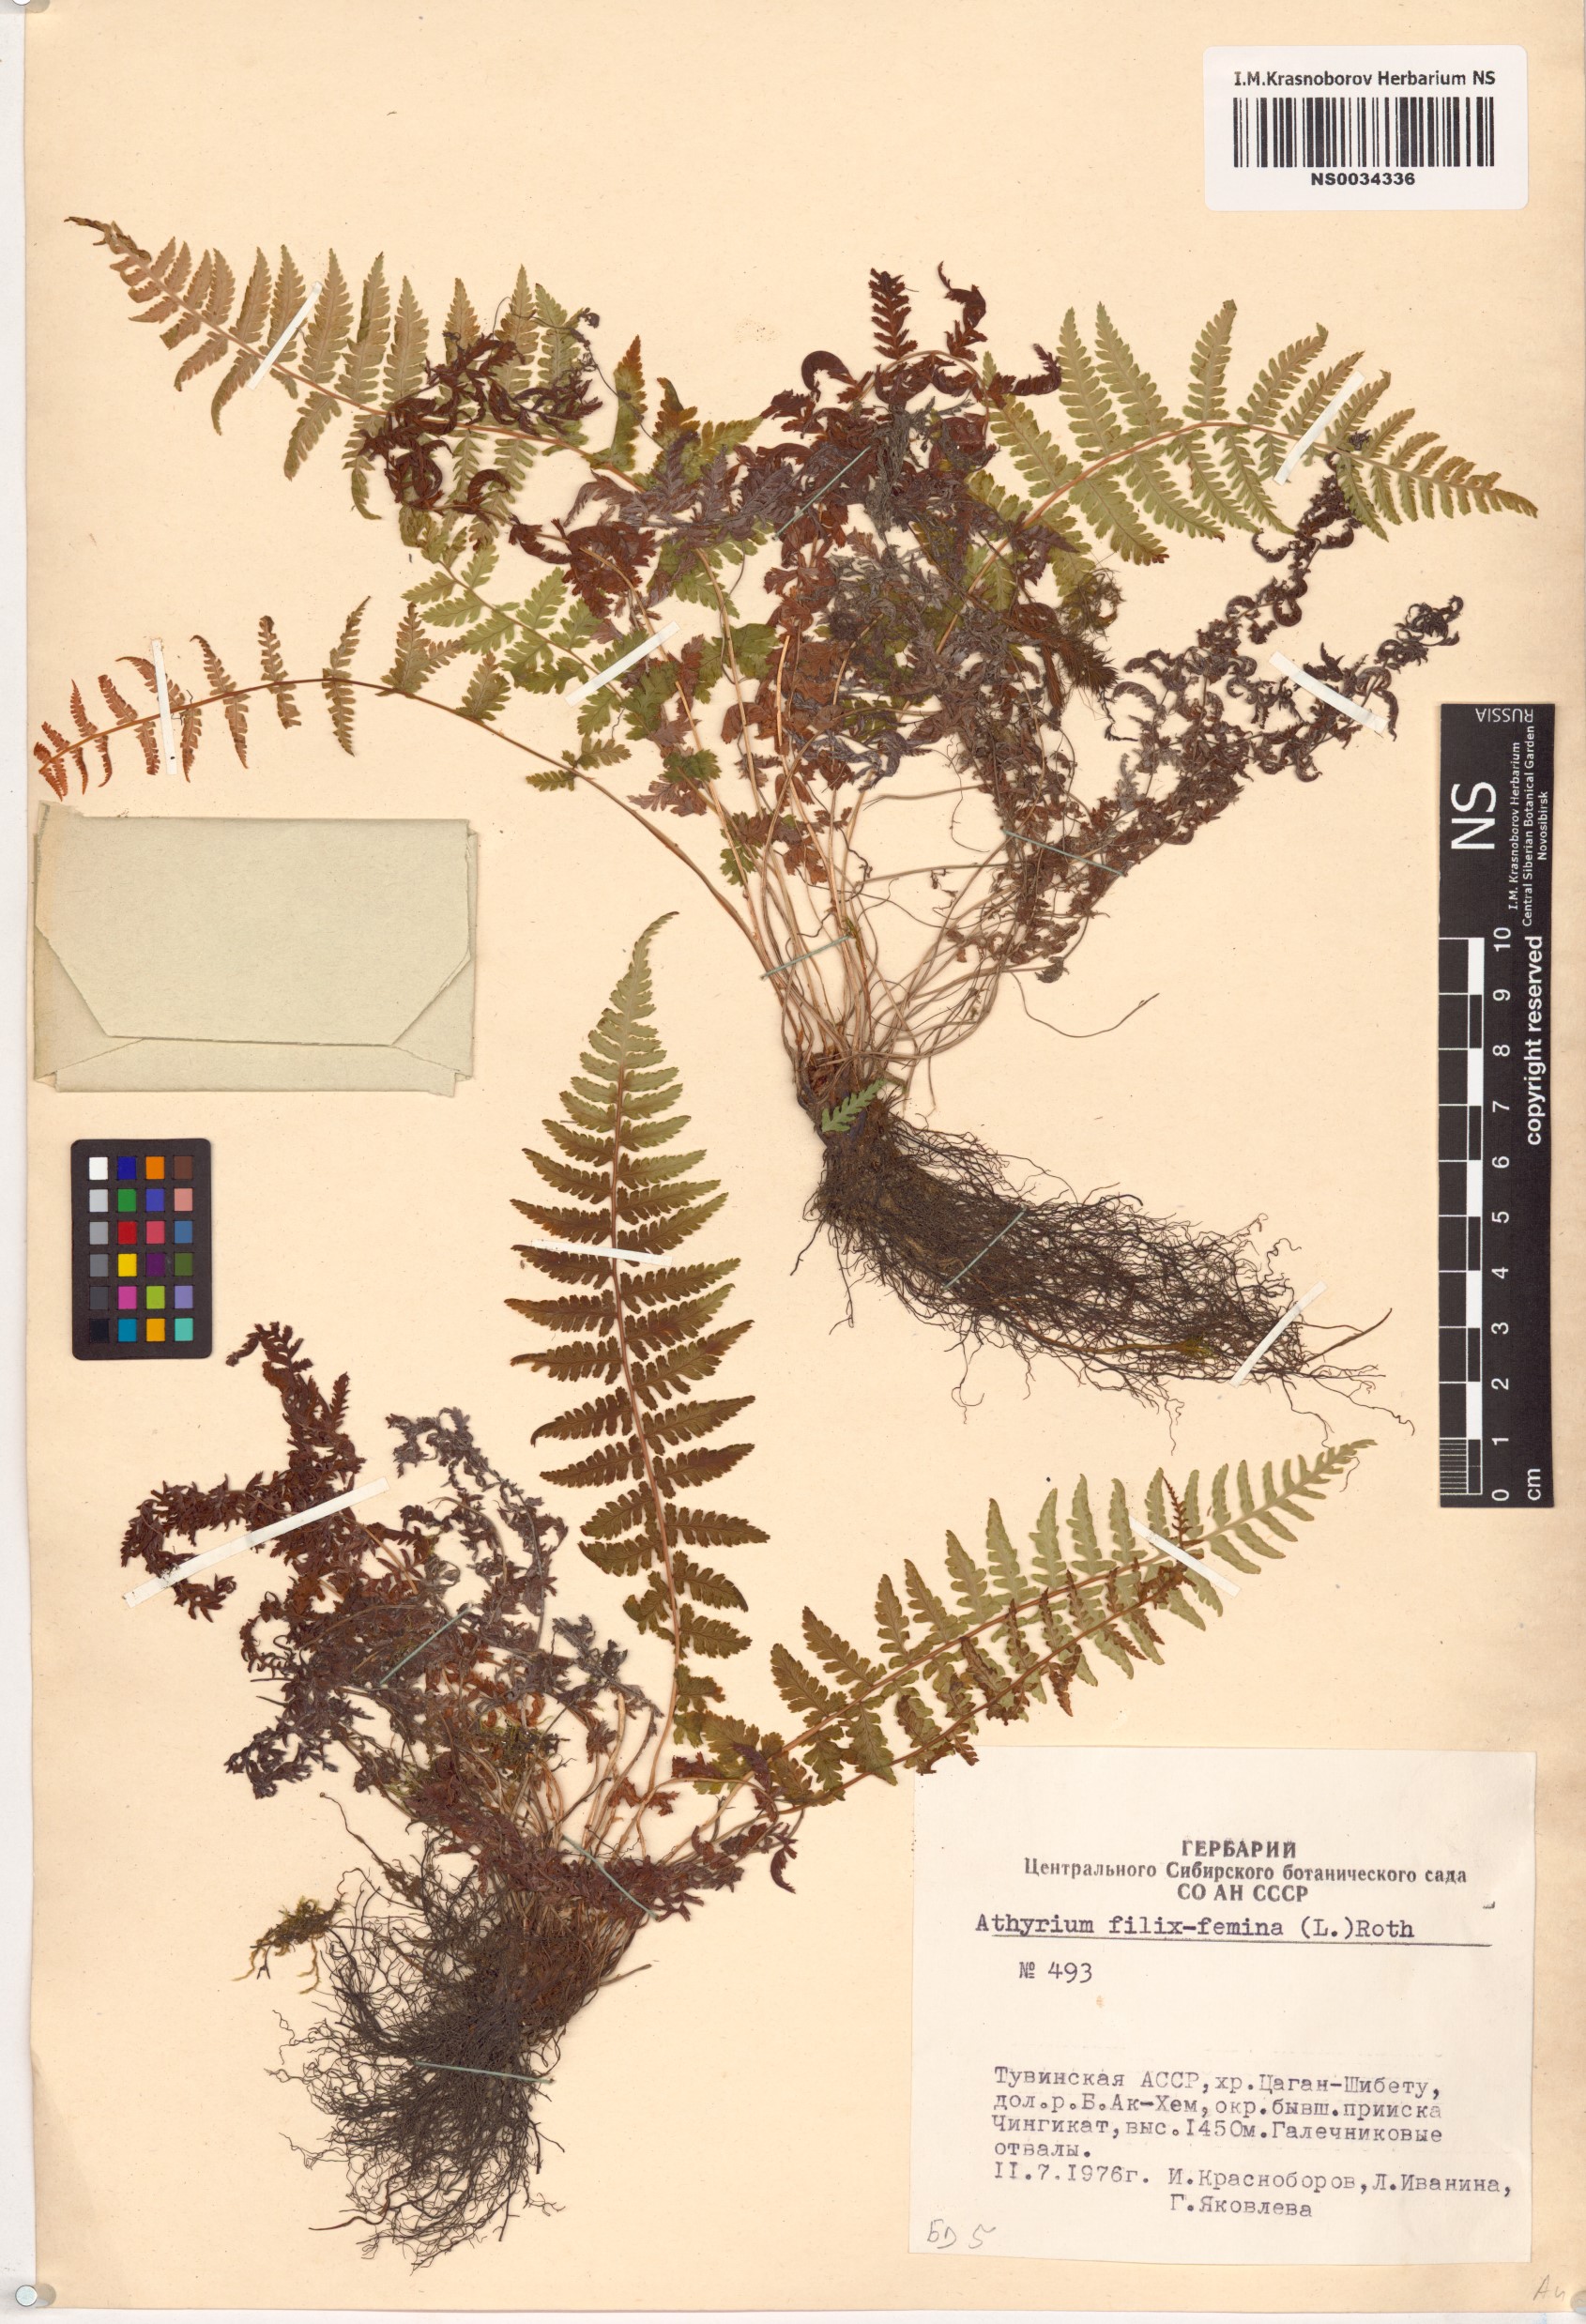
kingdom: Plantae
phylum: Tracheophyta
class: Polypodiopsida
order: Polypodiales
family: Athyriaceae
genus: Athyrium
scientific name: Athyrium filix-femina
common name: Lady fern
